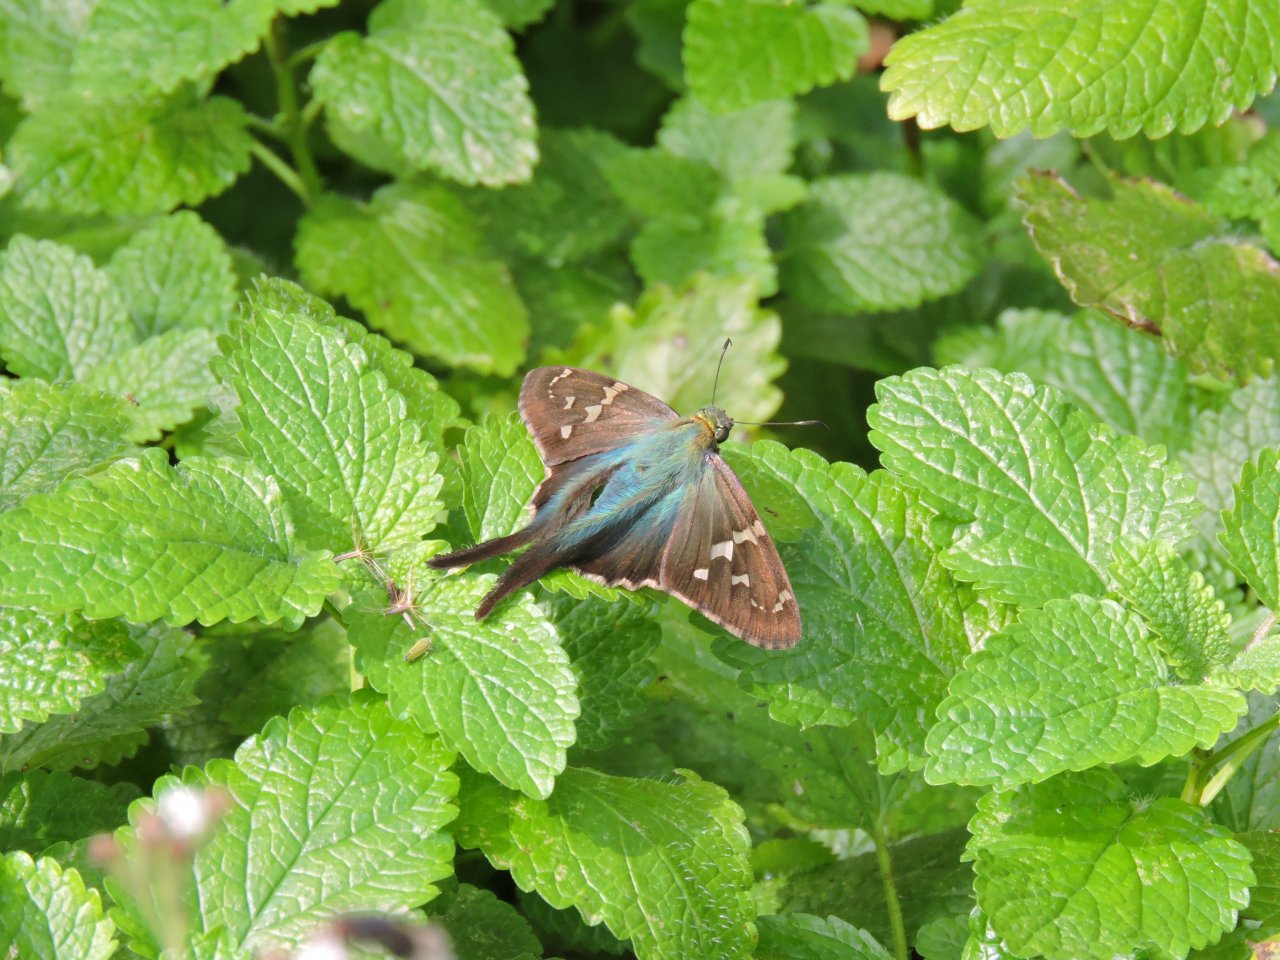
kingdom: Animalia
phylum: Arthropoda
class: Insecta
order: Lepidoptera
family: Hesperiidae
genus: Urbanus
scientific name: Urbanus proteus
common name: Long-tailed Skipper
